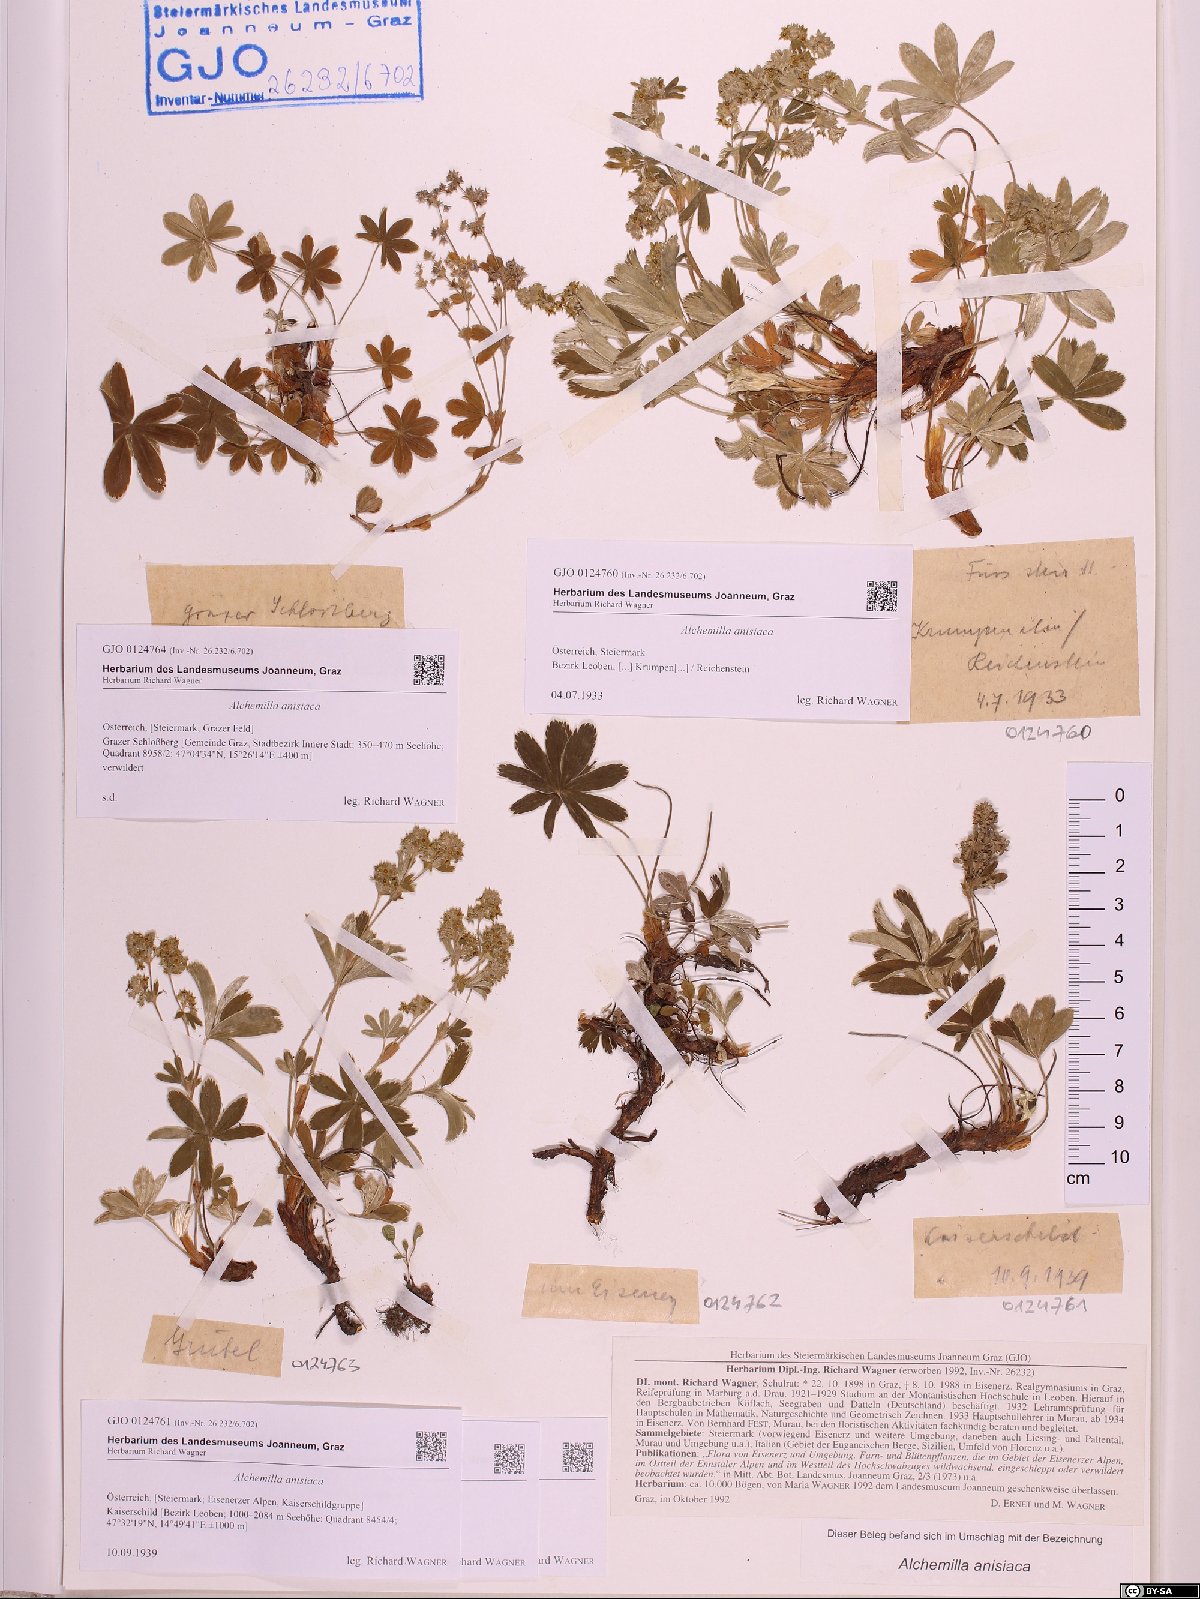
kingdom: Plantae
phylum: Tracheophyta
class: Magnoliopsida
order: Rosales
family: Rosaceae
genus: Alchemilla
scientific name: Alchemilla anisiaca
